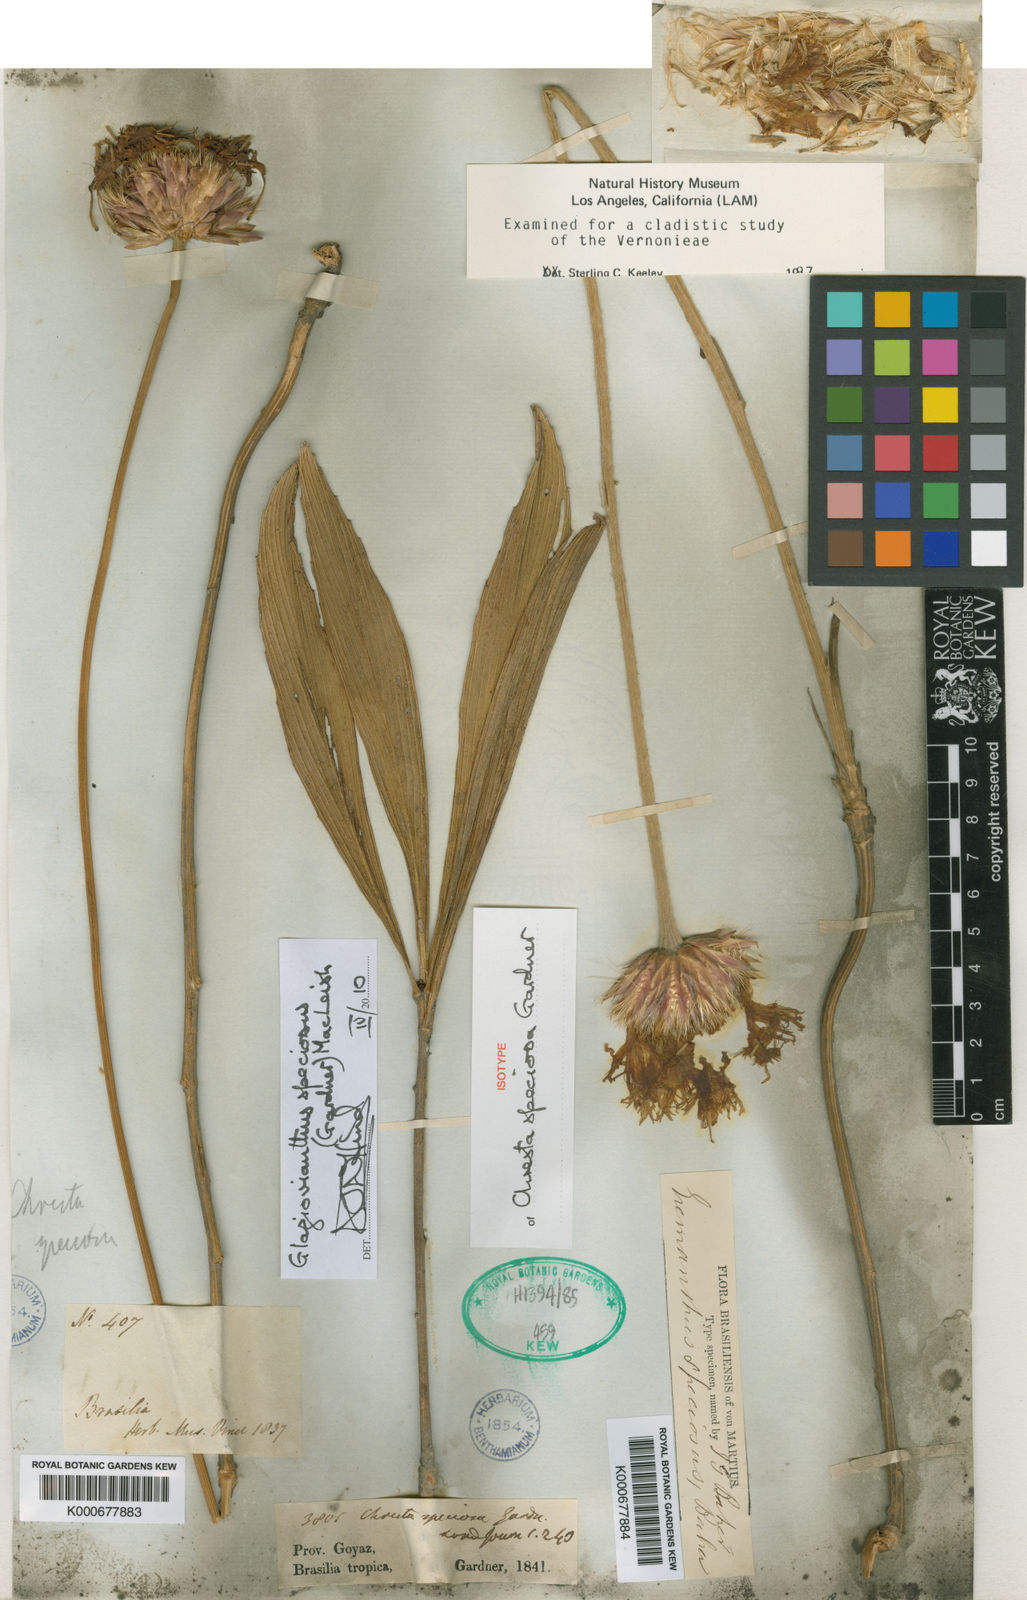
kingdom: Plantae
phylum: Tracheophyta
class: Magnoliopsida
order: Asterales
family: Asteraceae
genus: Chresta
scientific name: Chresta speciosa
